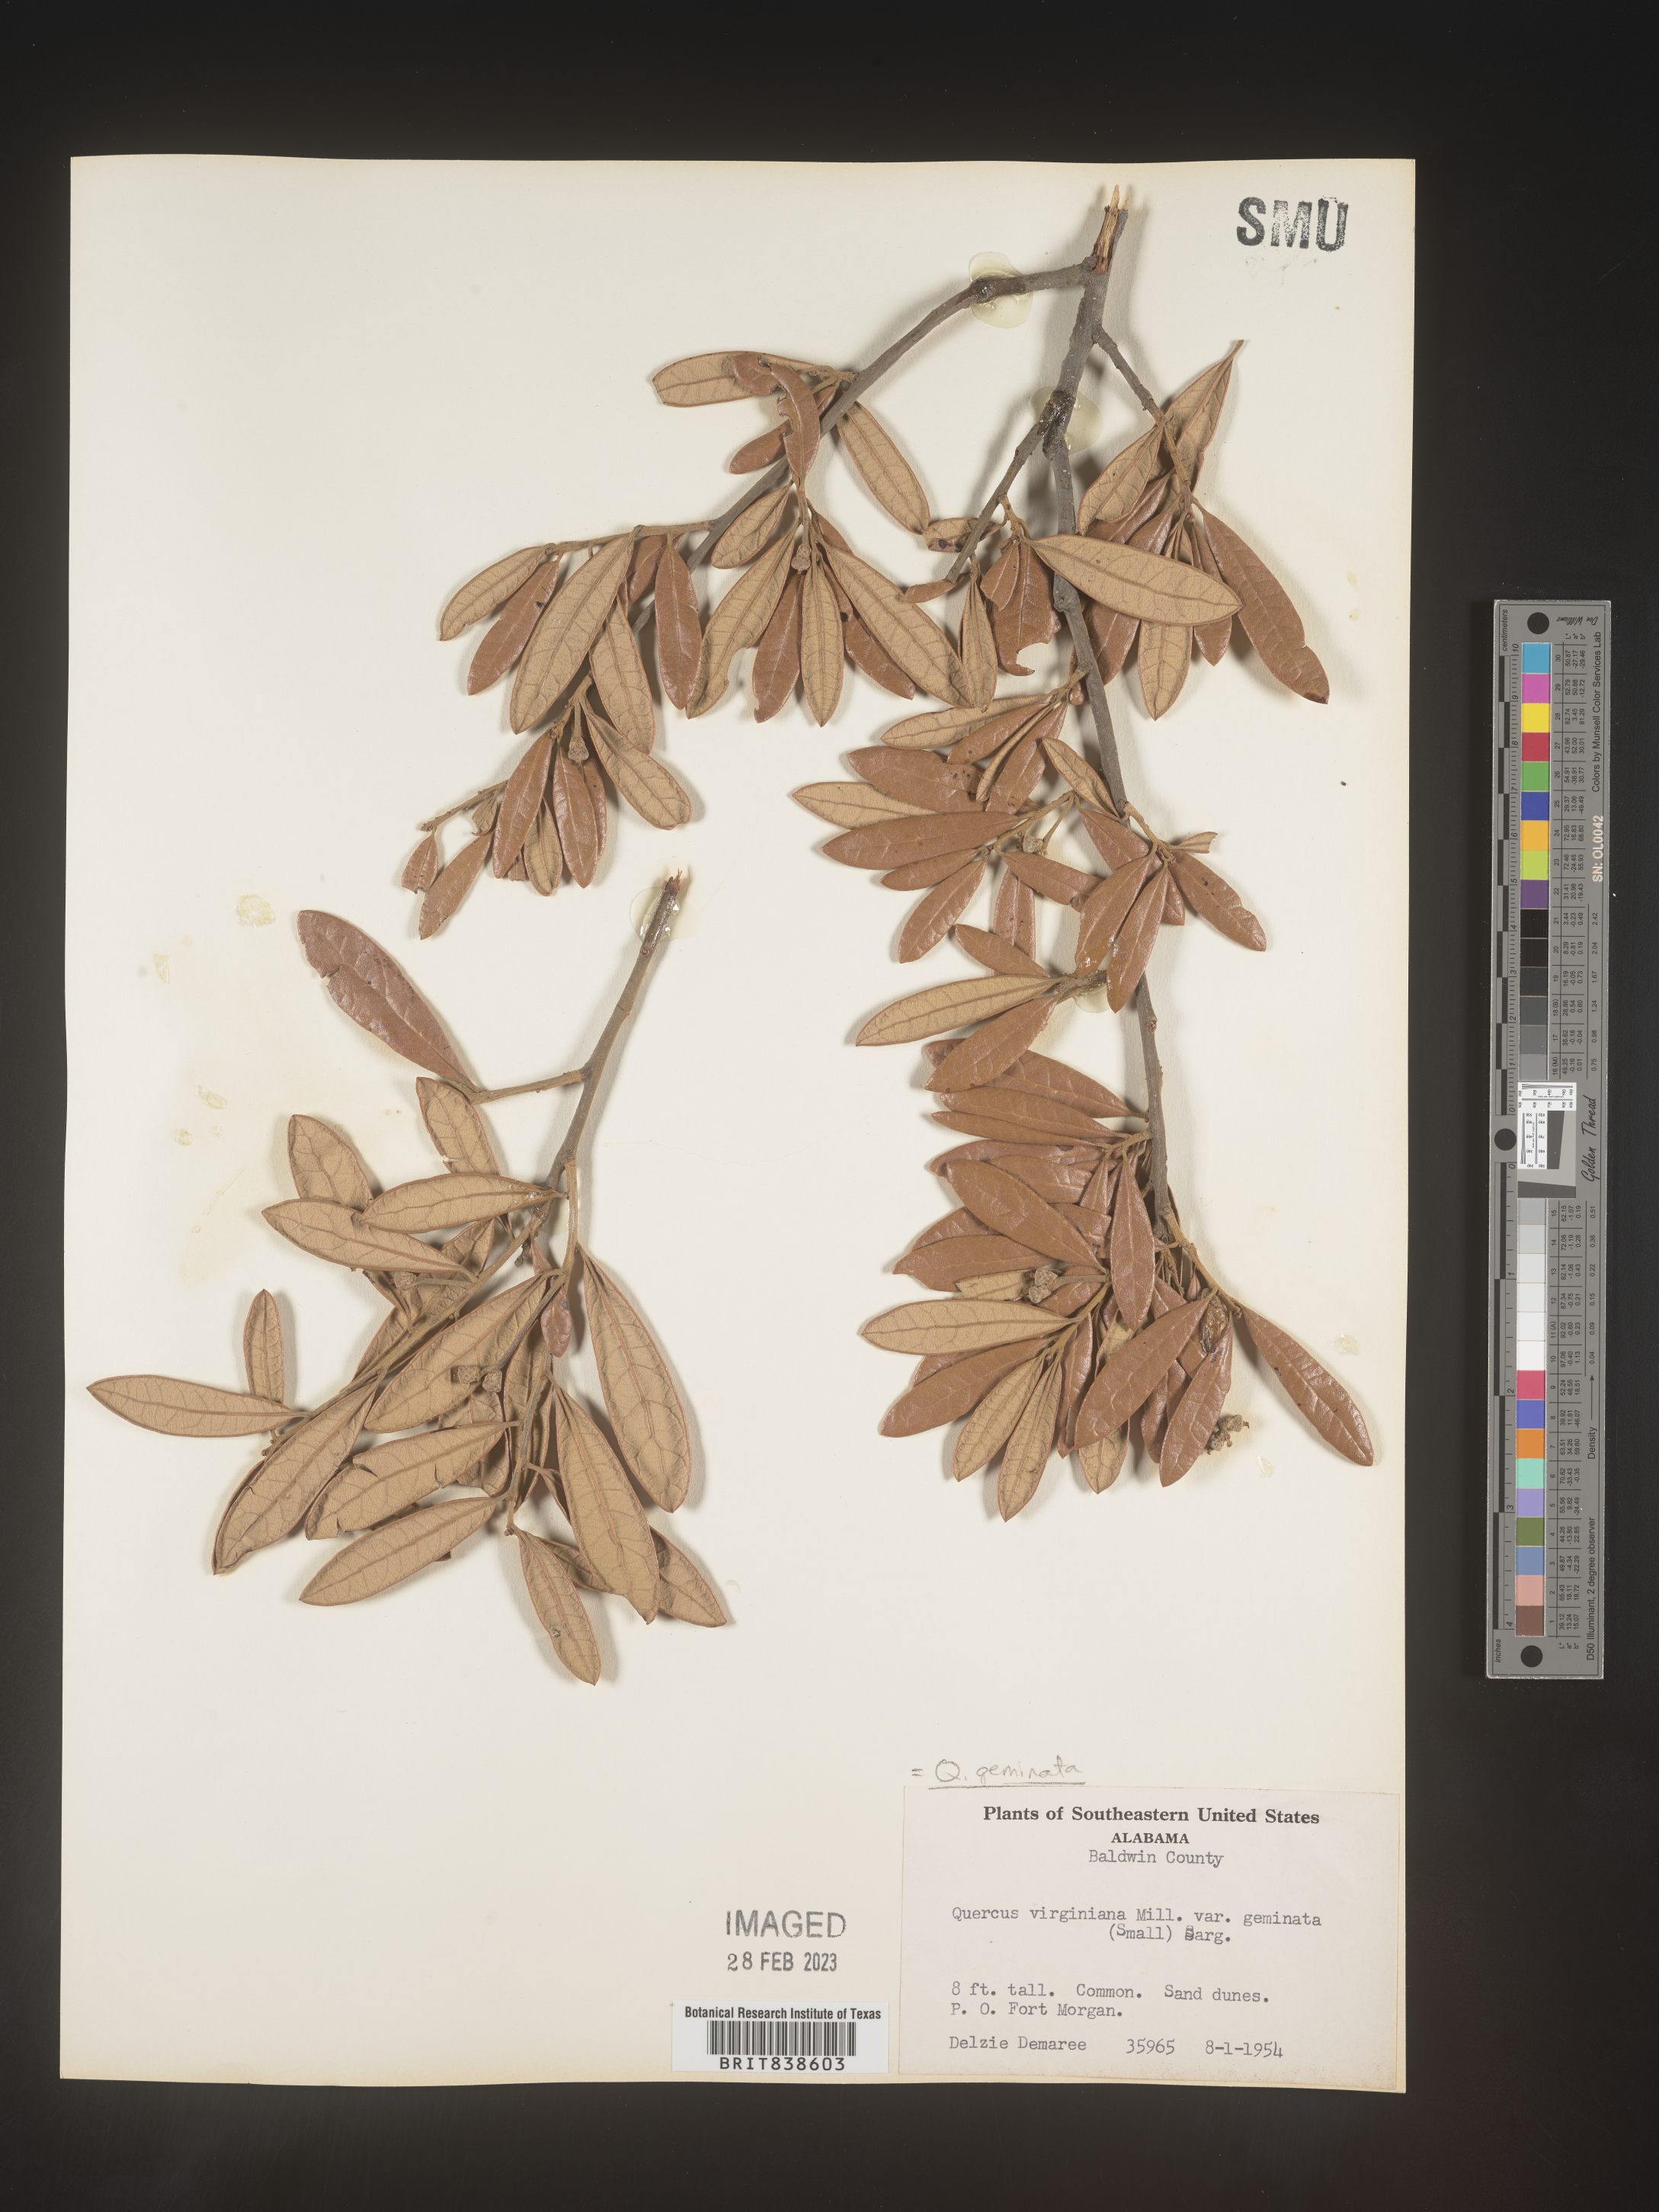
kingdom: Plantae
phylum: Tracheophyta
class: Magnoliopsida
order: Fagales
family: Fagaceae
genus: Quercus
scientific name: Quercus geminata
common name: Sand live oak
